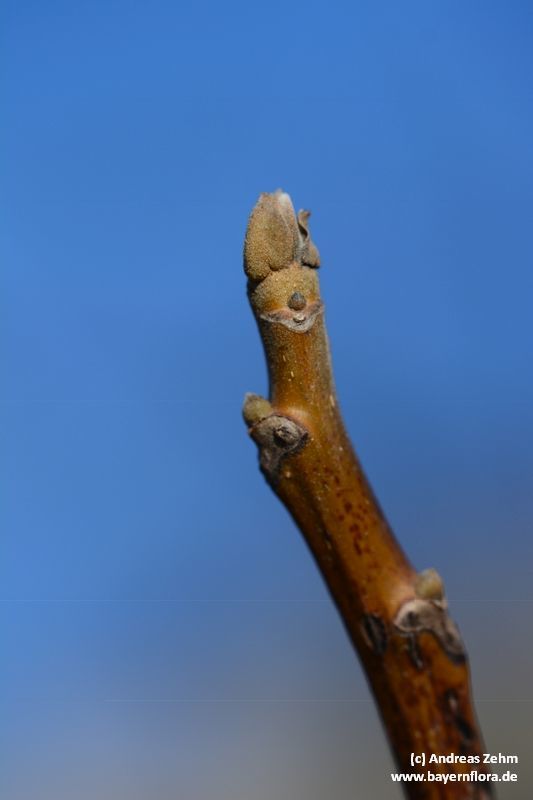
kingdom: Plantae
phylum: Tracheophyta
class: Magnoliopsida
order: Fagales
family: Juglandaceae
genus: Juglans
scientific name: Juglans regia
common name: Walnut
